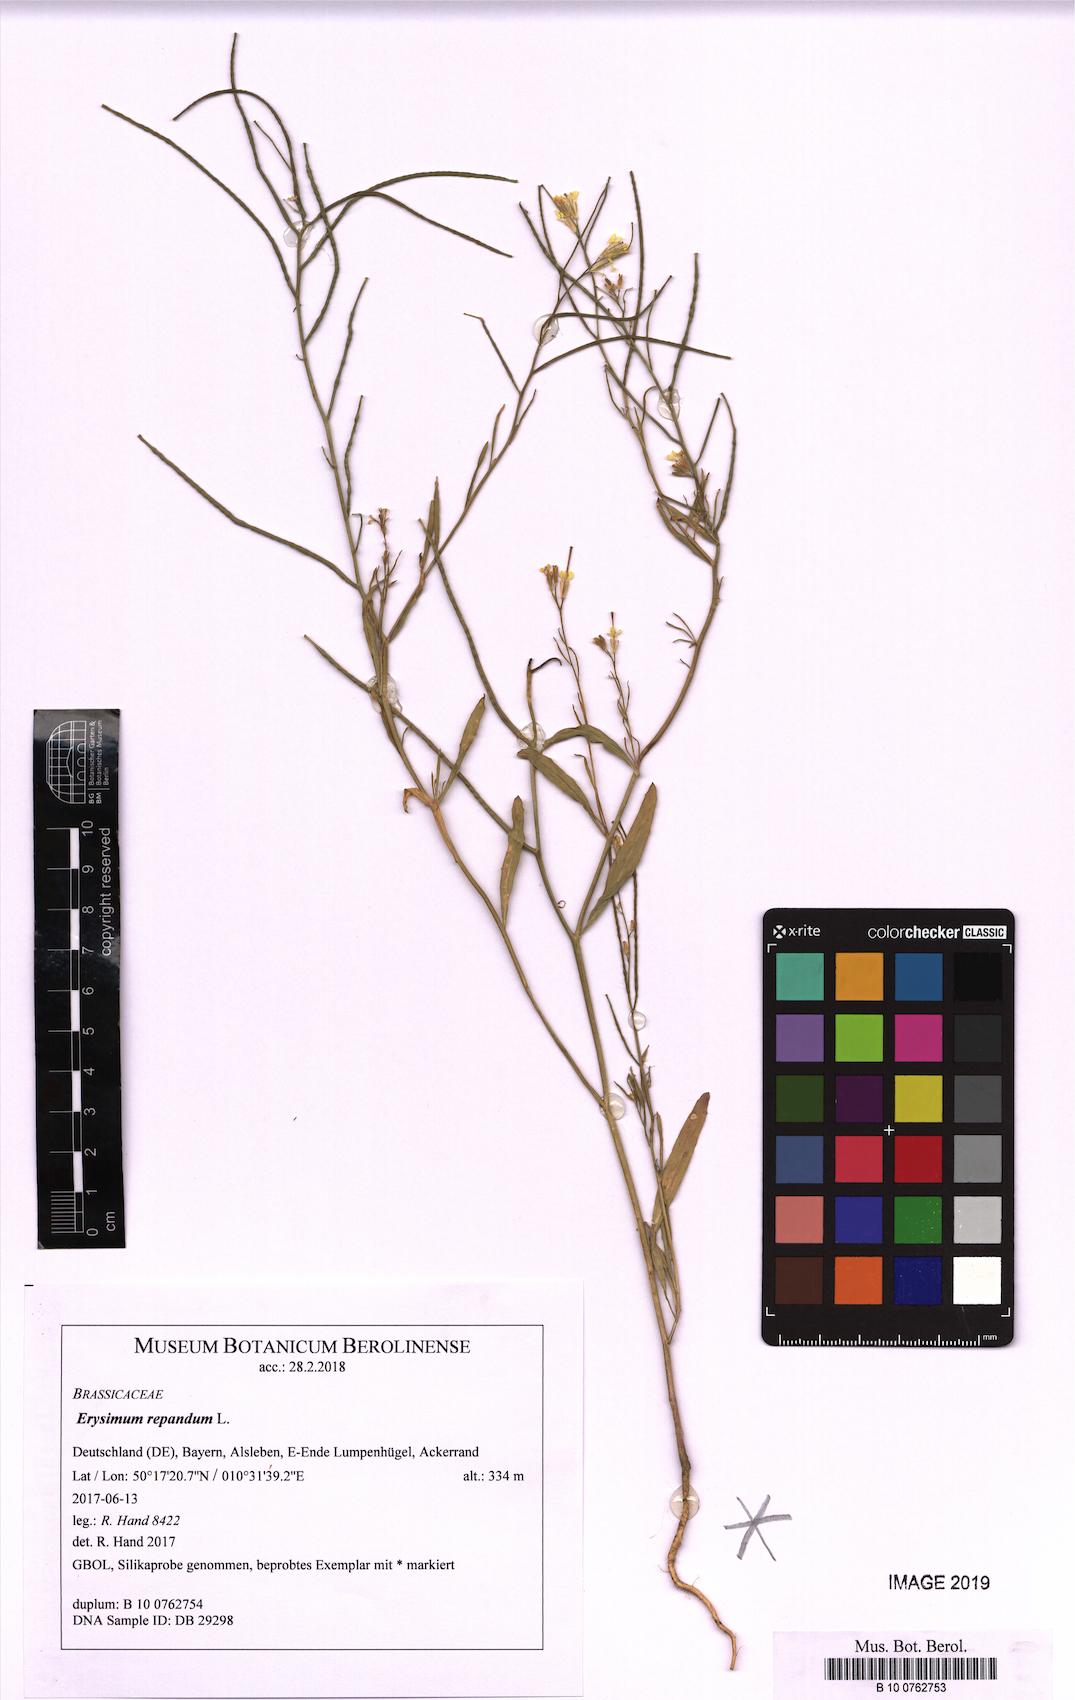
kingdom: Plantae
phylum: Tracheophyta
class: Magnoliopsida
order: Brassicales
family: Brassicaceae
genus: Erysimum
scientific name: Erysimum repandum
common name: Spreading wallflower
